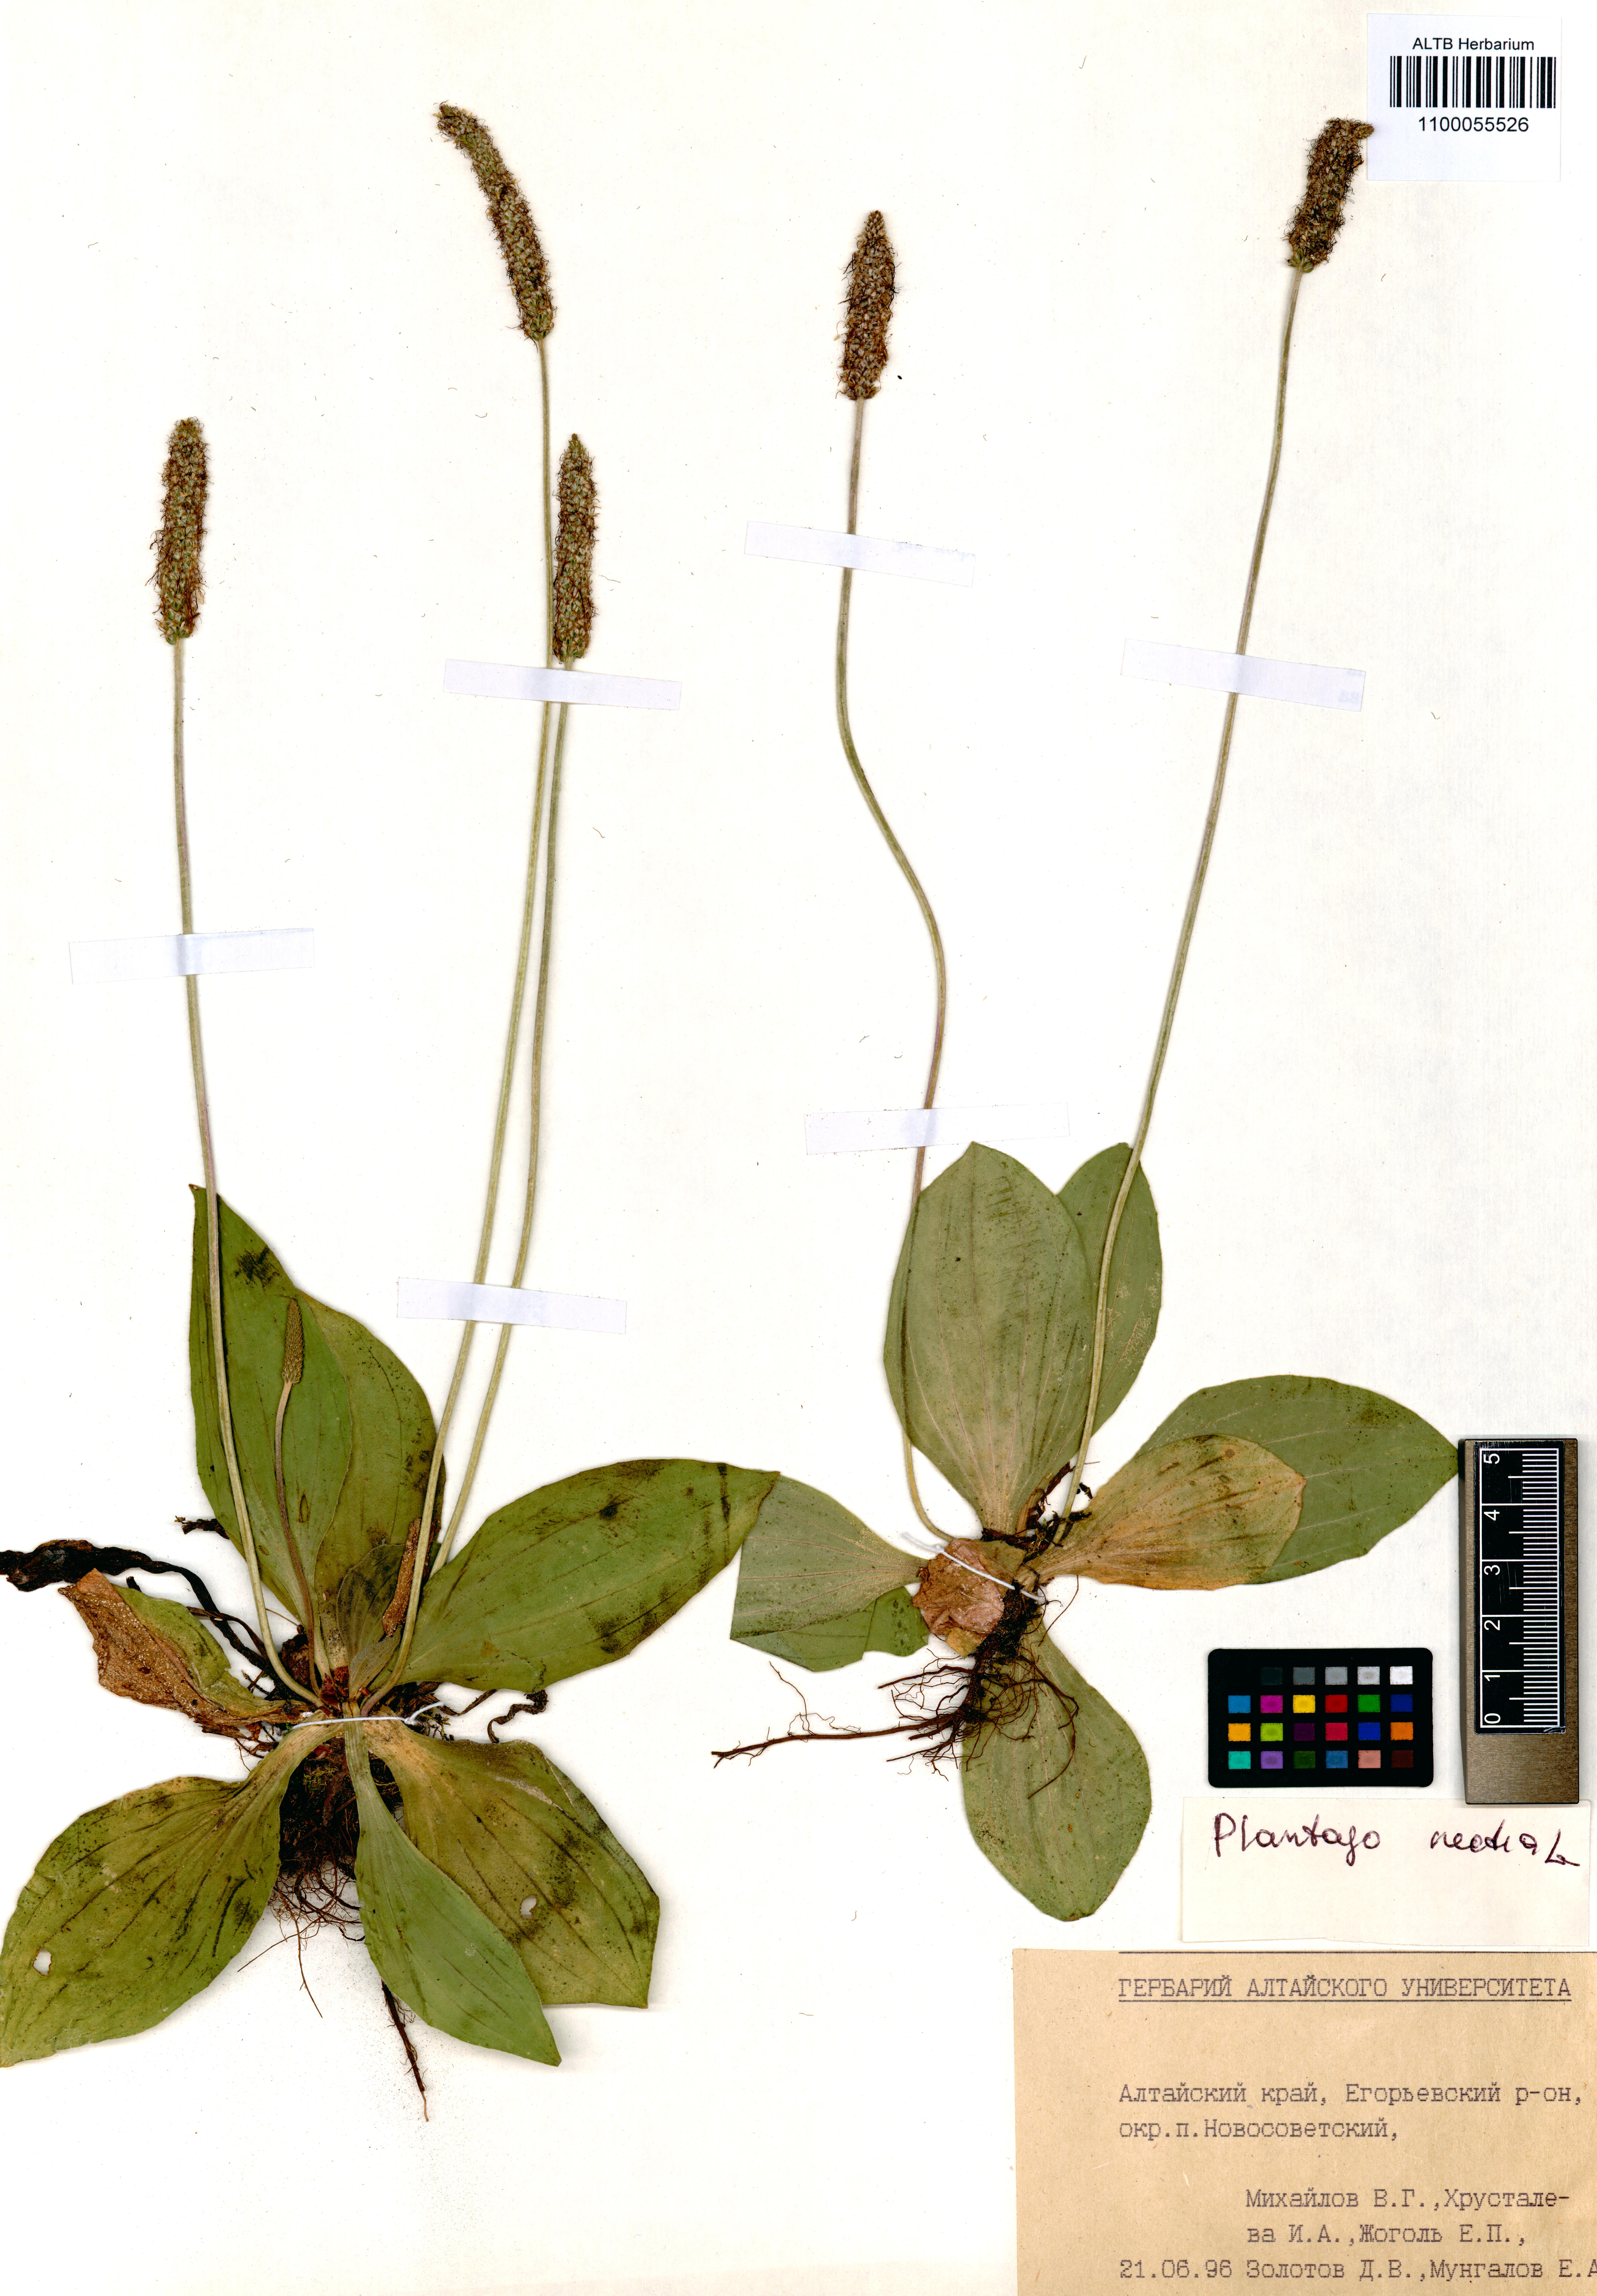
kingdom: Plantae
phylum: Tracheophyta
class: Magnoliopsida
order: Lamiales
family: Plantaginaceae
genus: Plantago
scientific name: Plantago media
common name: Hoary plantain
